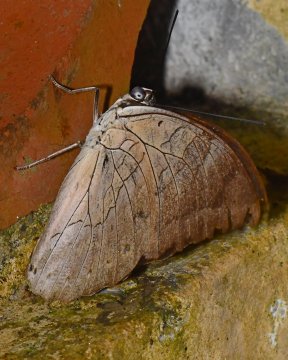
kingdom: Animalia
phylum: Arthropoda
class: Insecta
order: Lepidoptera
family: Nymphalidae
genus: Prepona
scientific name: Prepona demophon
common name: One-spotted Prepona
